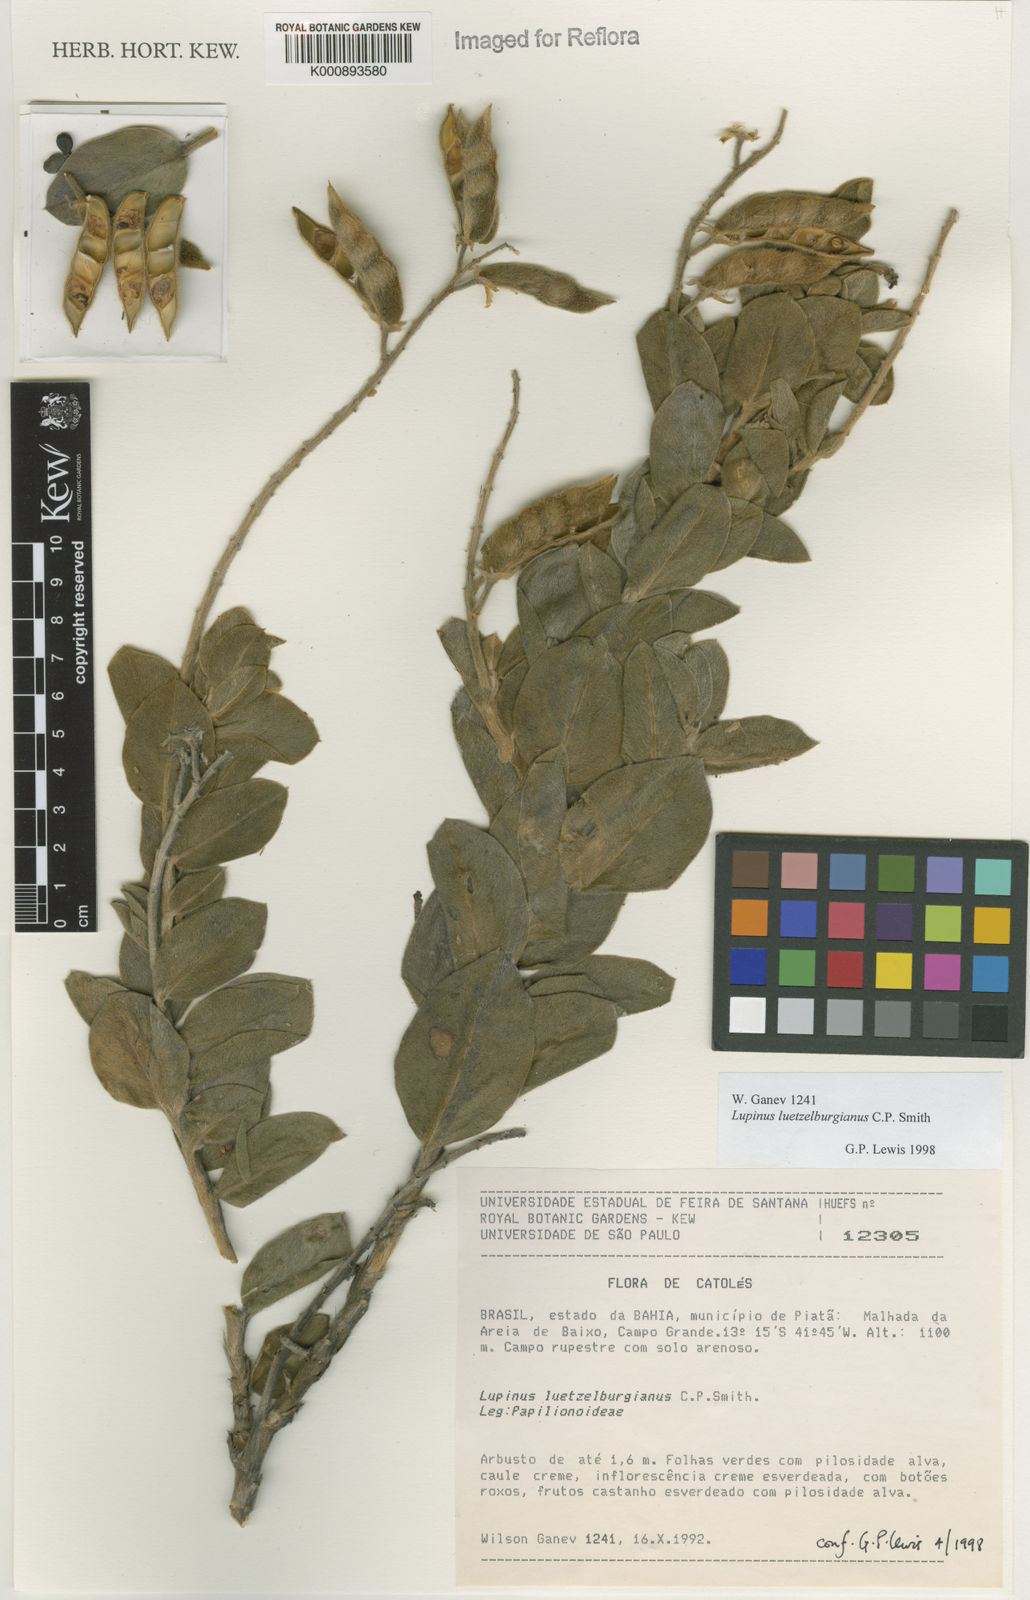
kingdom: Plantae
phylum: Tracheophyta
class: Magnoliopsida
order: Fabales
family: Fabaceae
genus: Lupinus
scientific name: Lupinus
